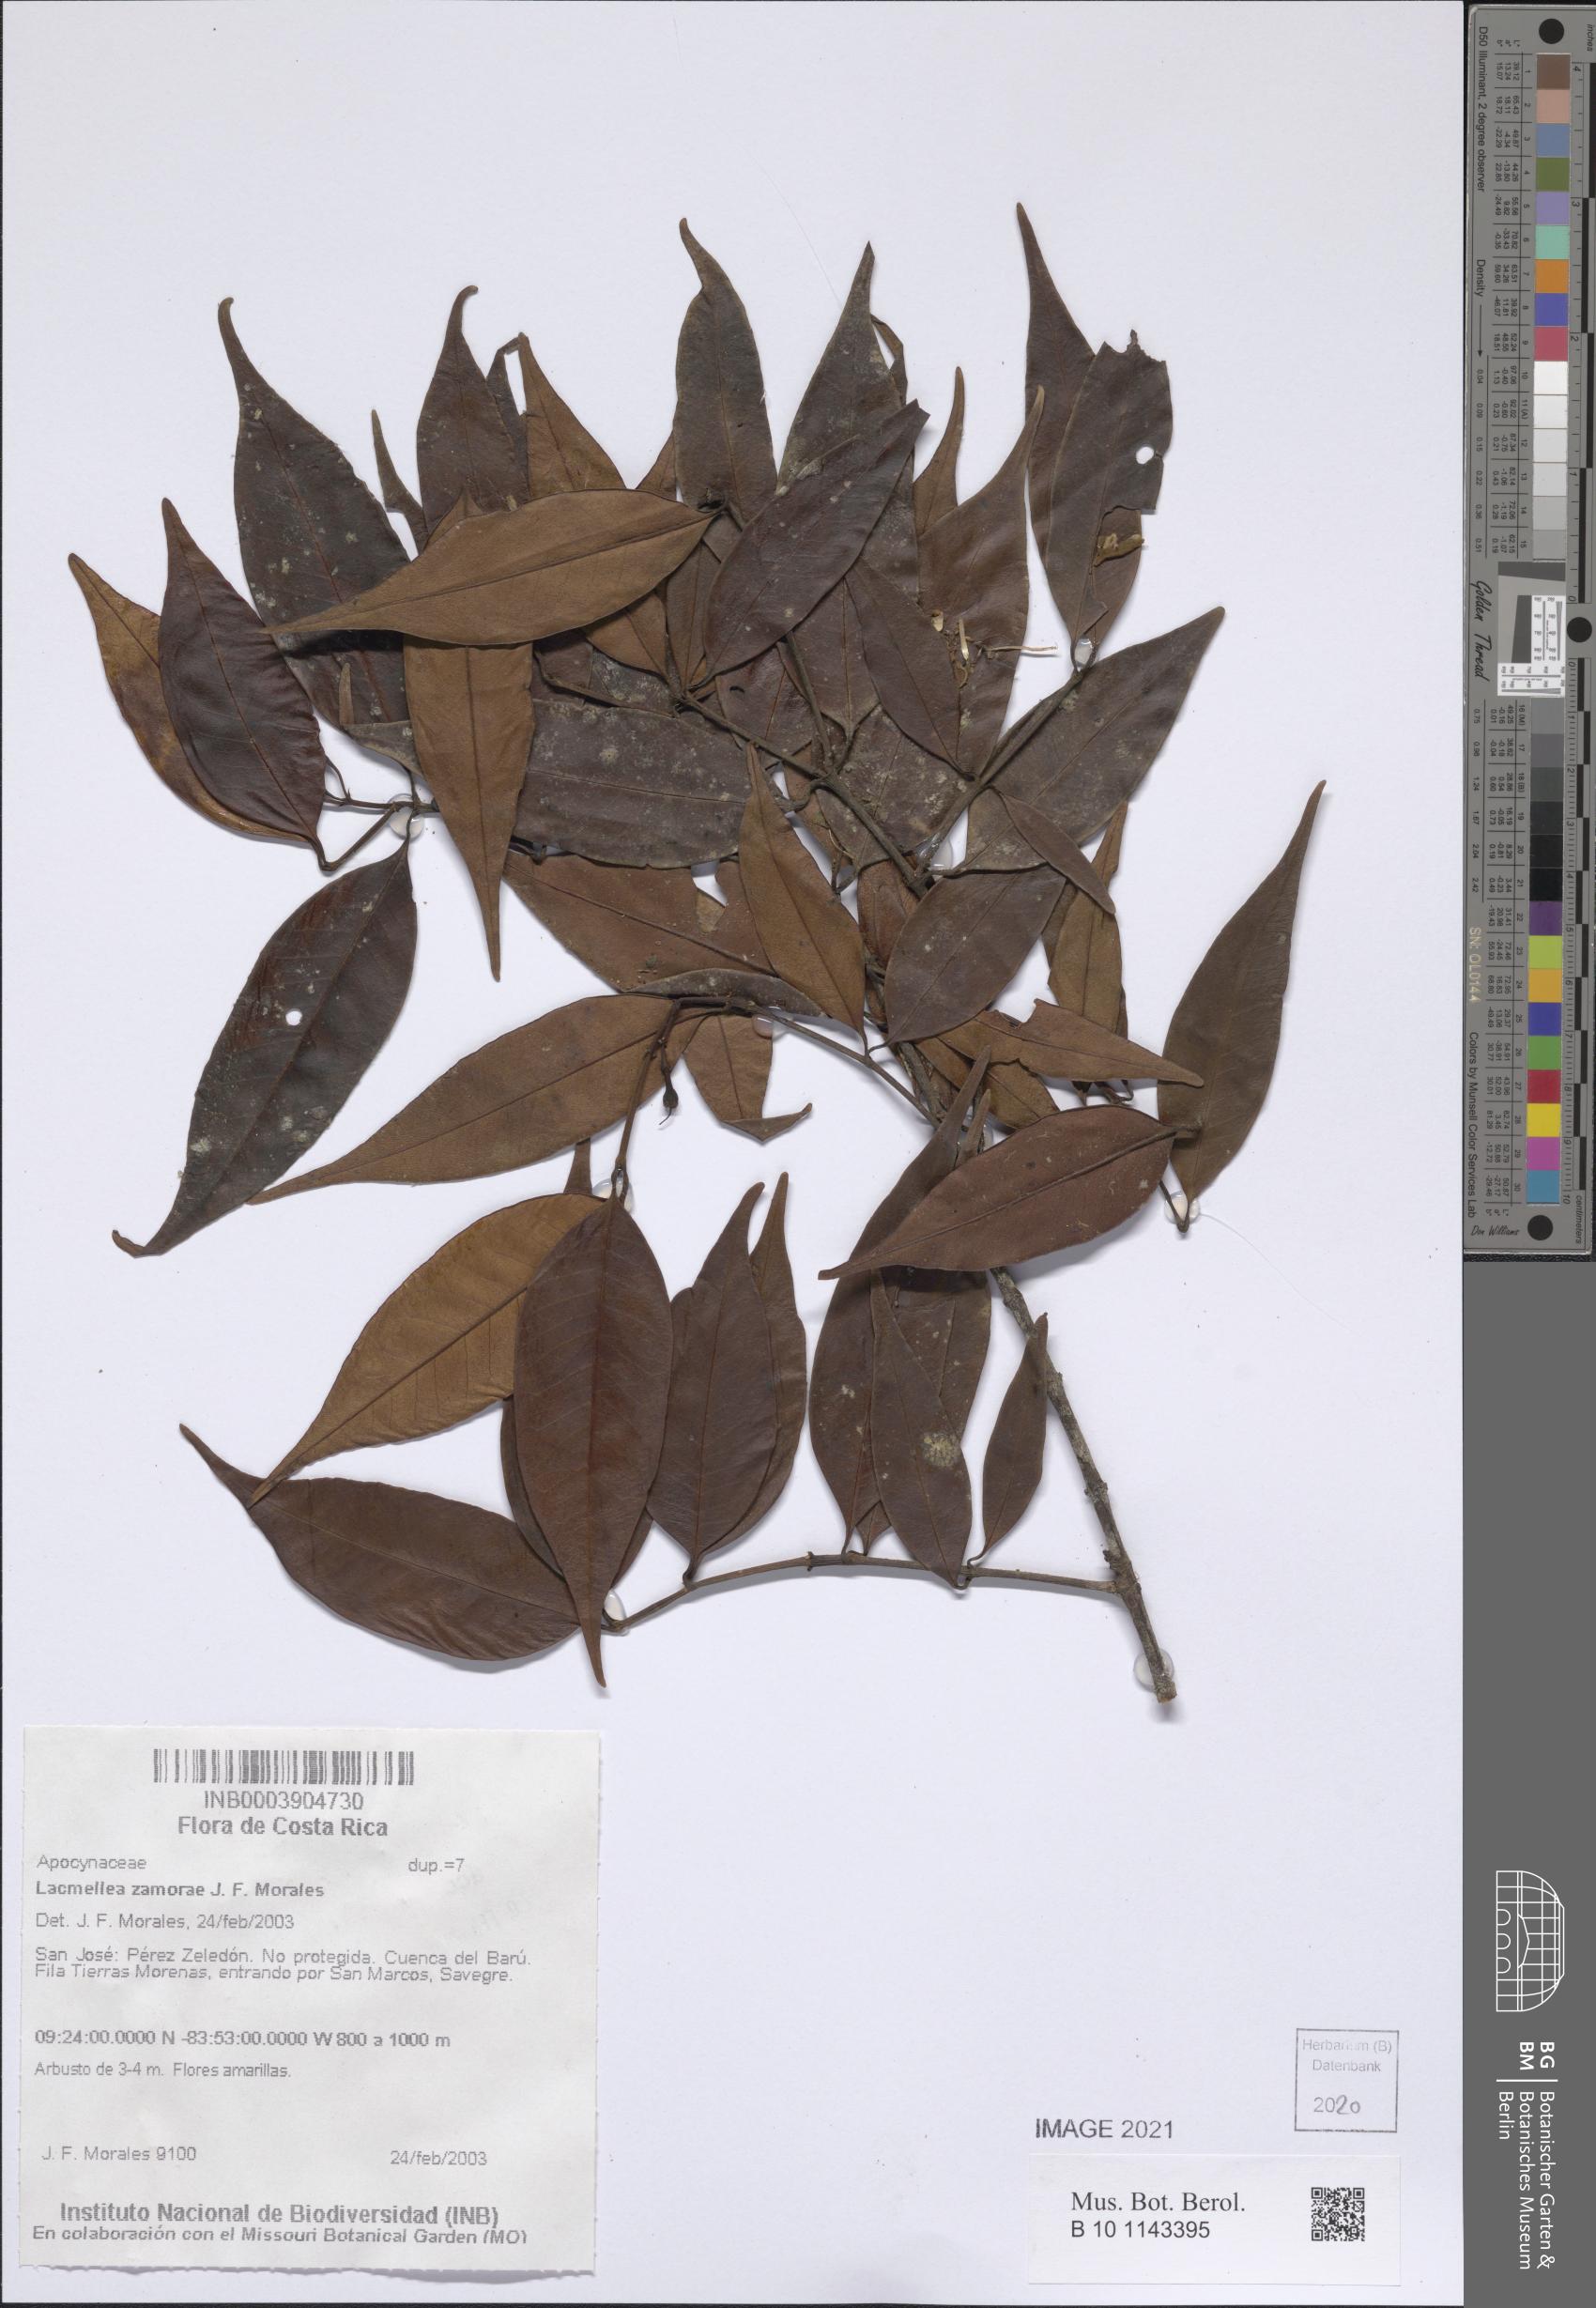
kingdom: Plantae
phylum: Tracheophyta
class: Magnoliopsida
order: Gentianales
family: Apocynaceae
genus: Lacmellea
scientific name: Lacmellea zamorae
